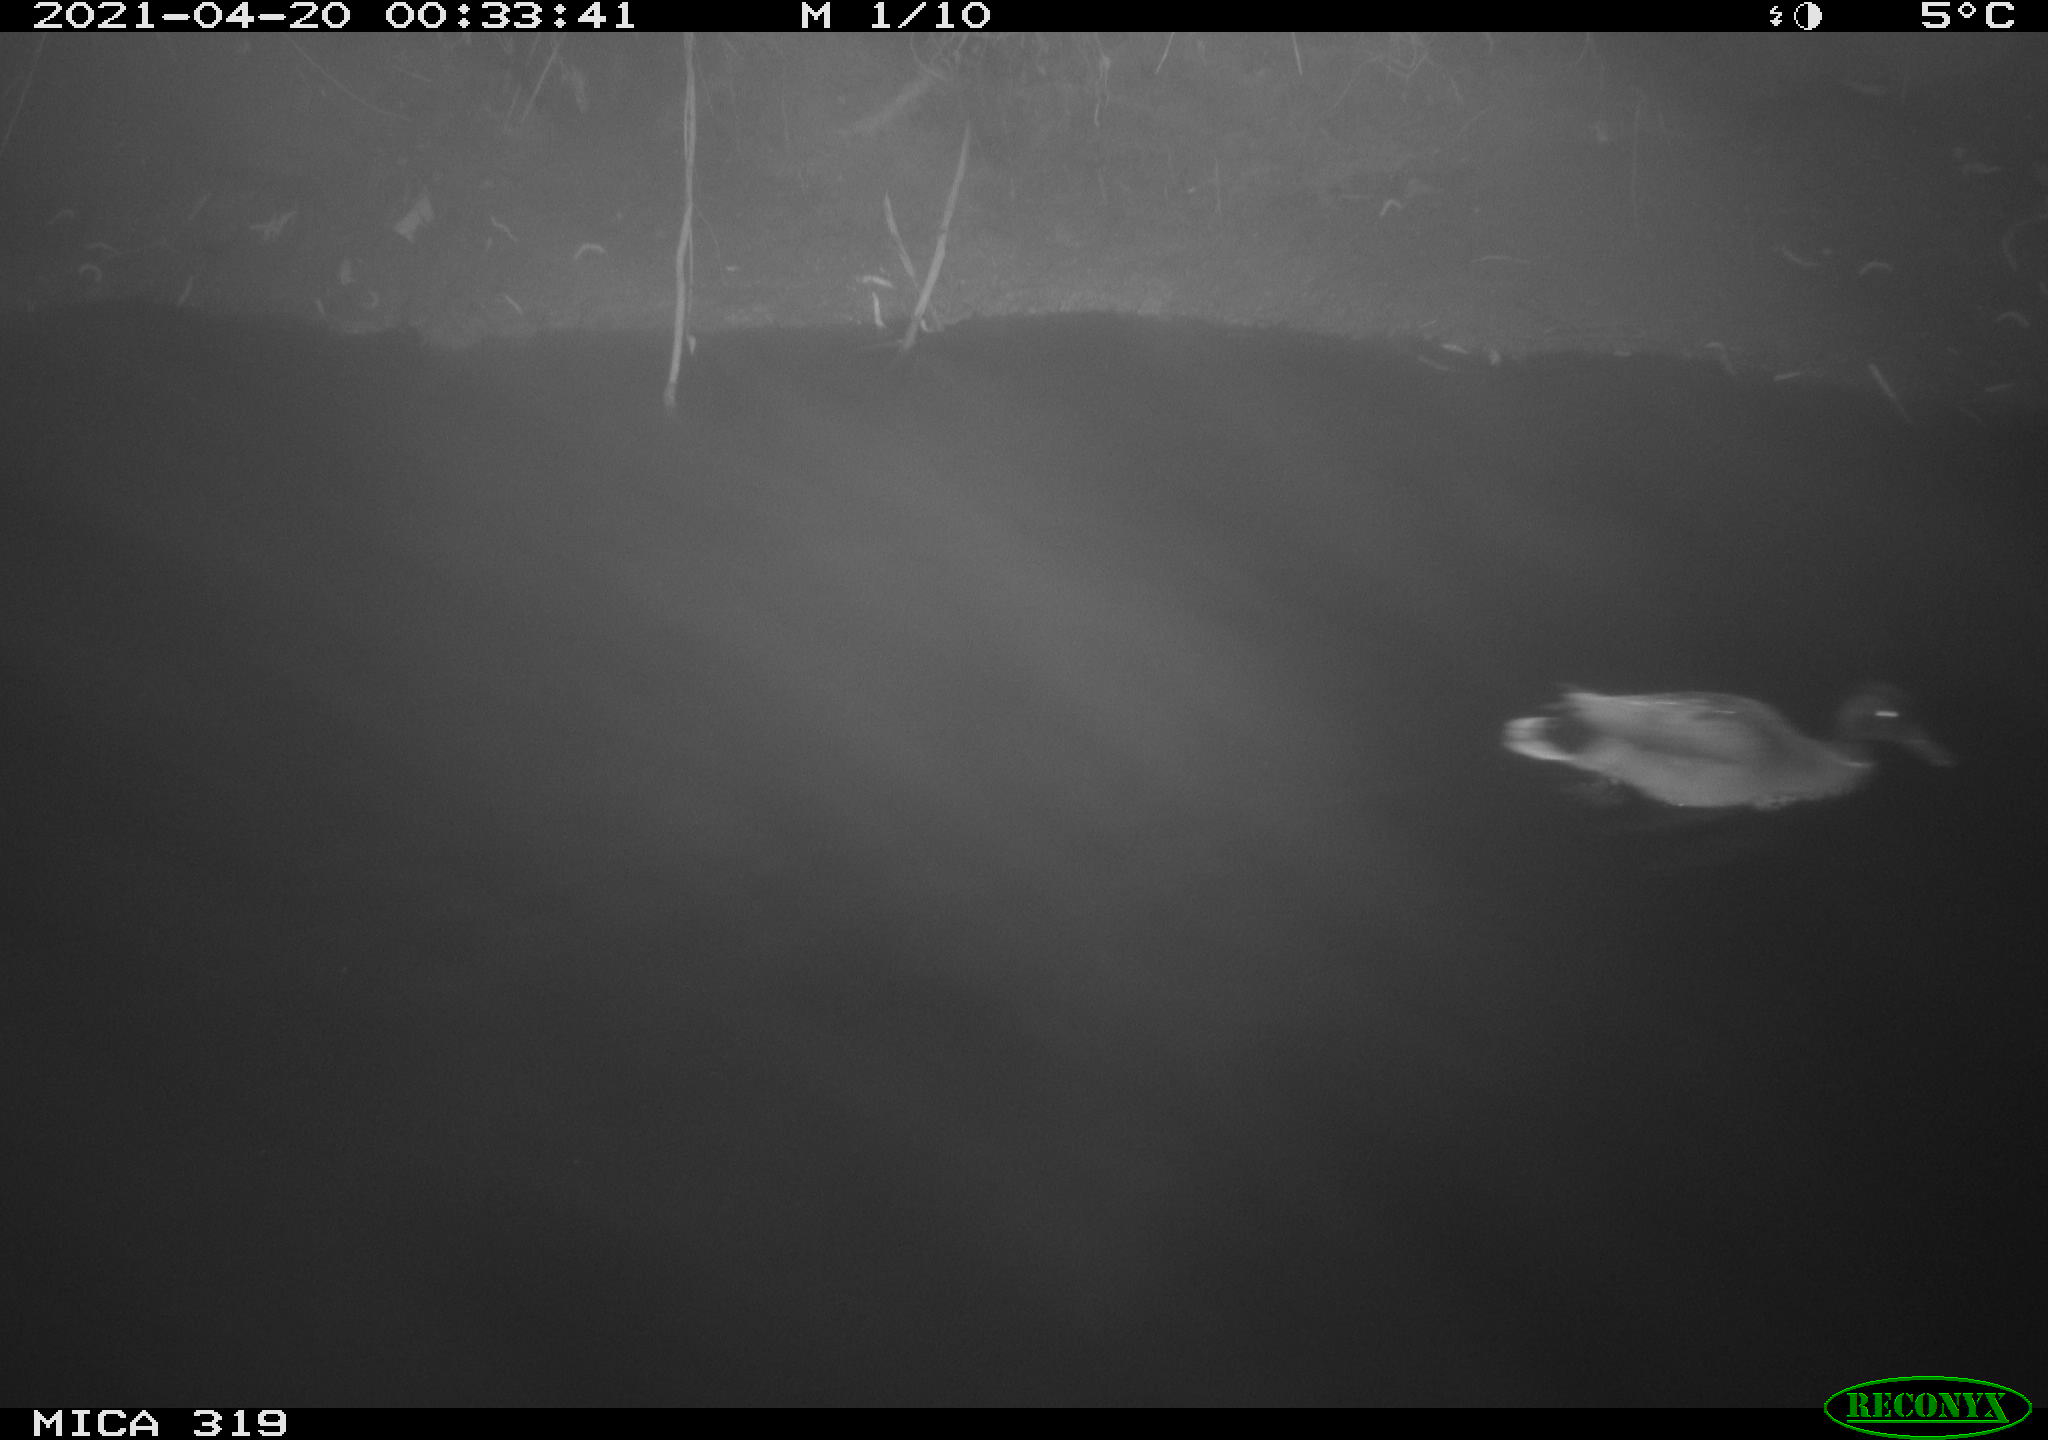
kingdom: Animalia
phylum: Chordata
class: Aves
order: Anseriformes
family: Anatidae
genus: Anas
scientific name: Anas platyrhynchos
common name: Mallard
